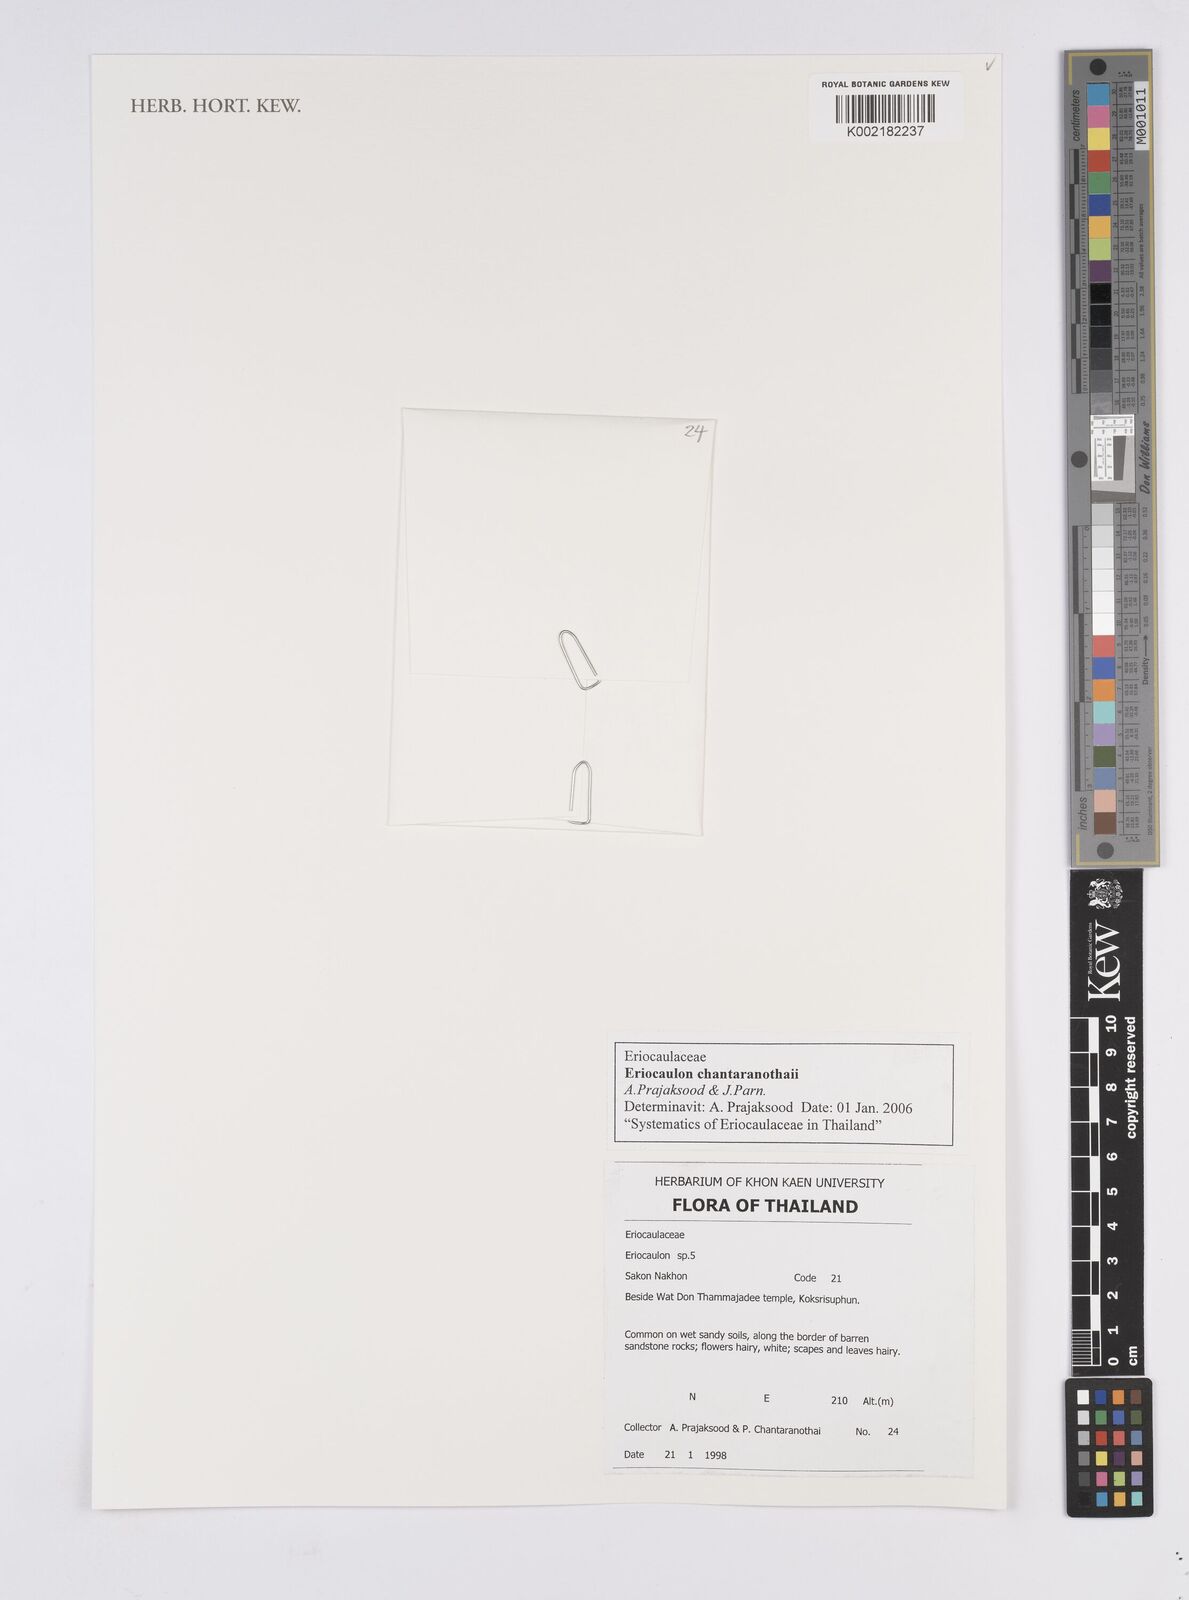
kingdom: Plantae
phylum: Tracheophyta
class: Liliopsida
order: Poales
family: Eriocaulaceae
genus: Eriocaulon
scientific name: Eriocaulon chantaranothaii
